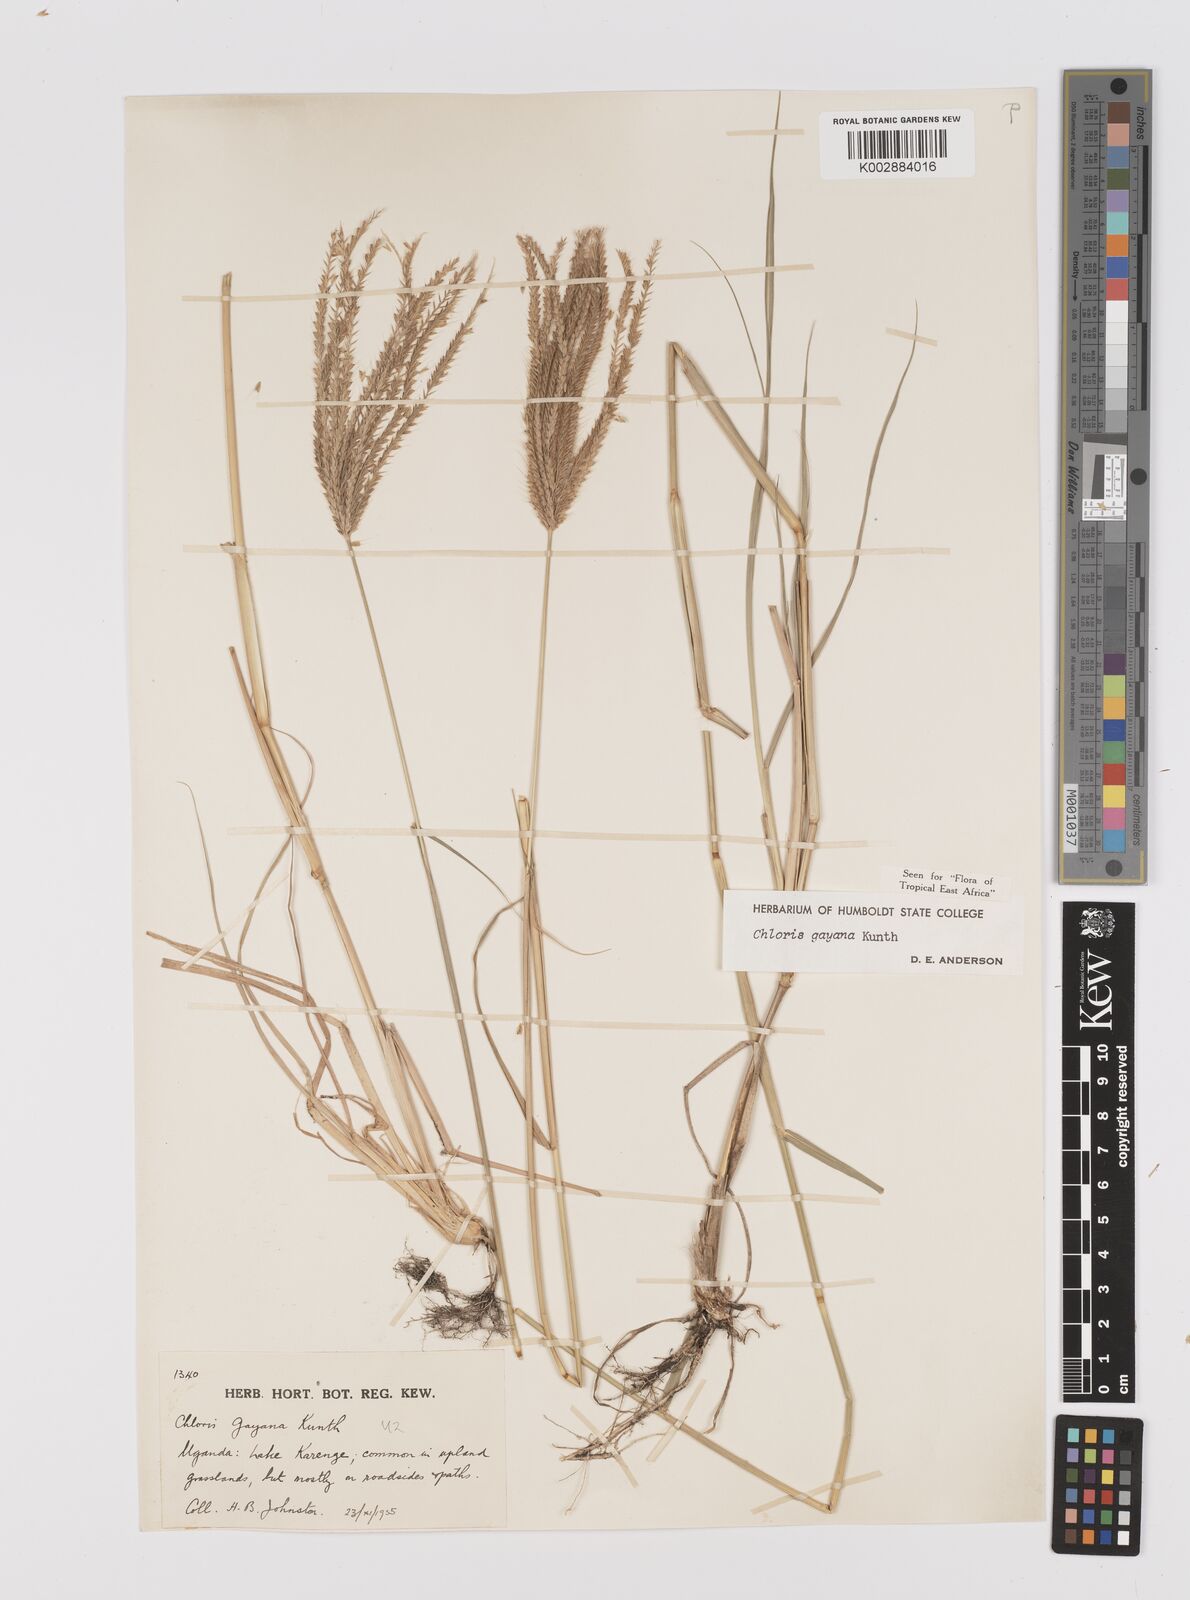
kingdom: Plantae
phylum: Tracheophyta
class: Liliopsida
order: Poales
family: Poaceae
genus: Chloris
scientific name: Chloris gayana
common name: Rhodes grass
